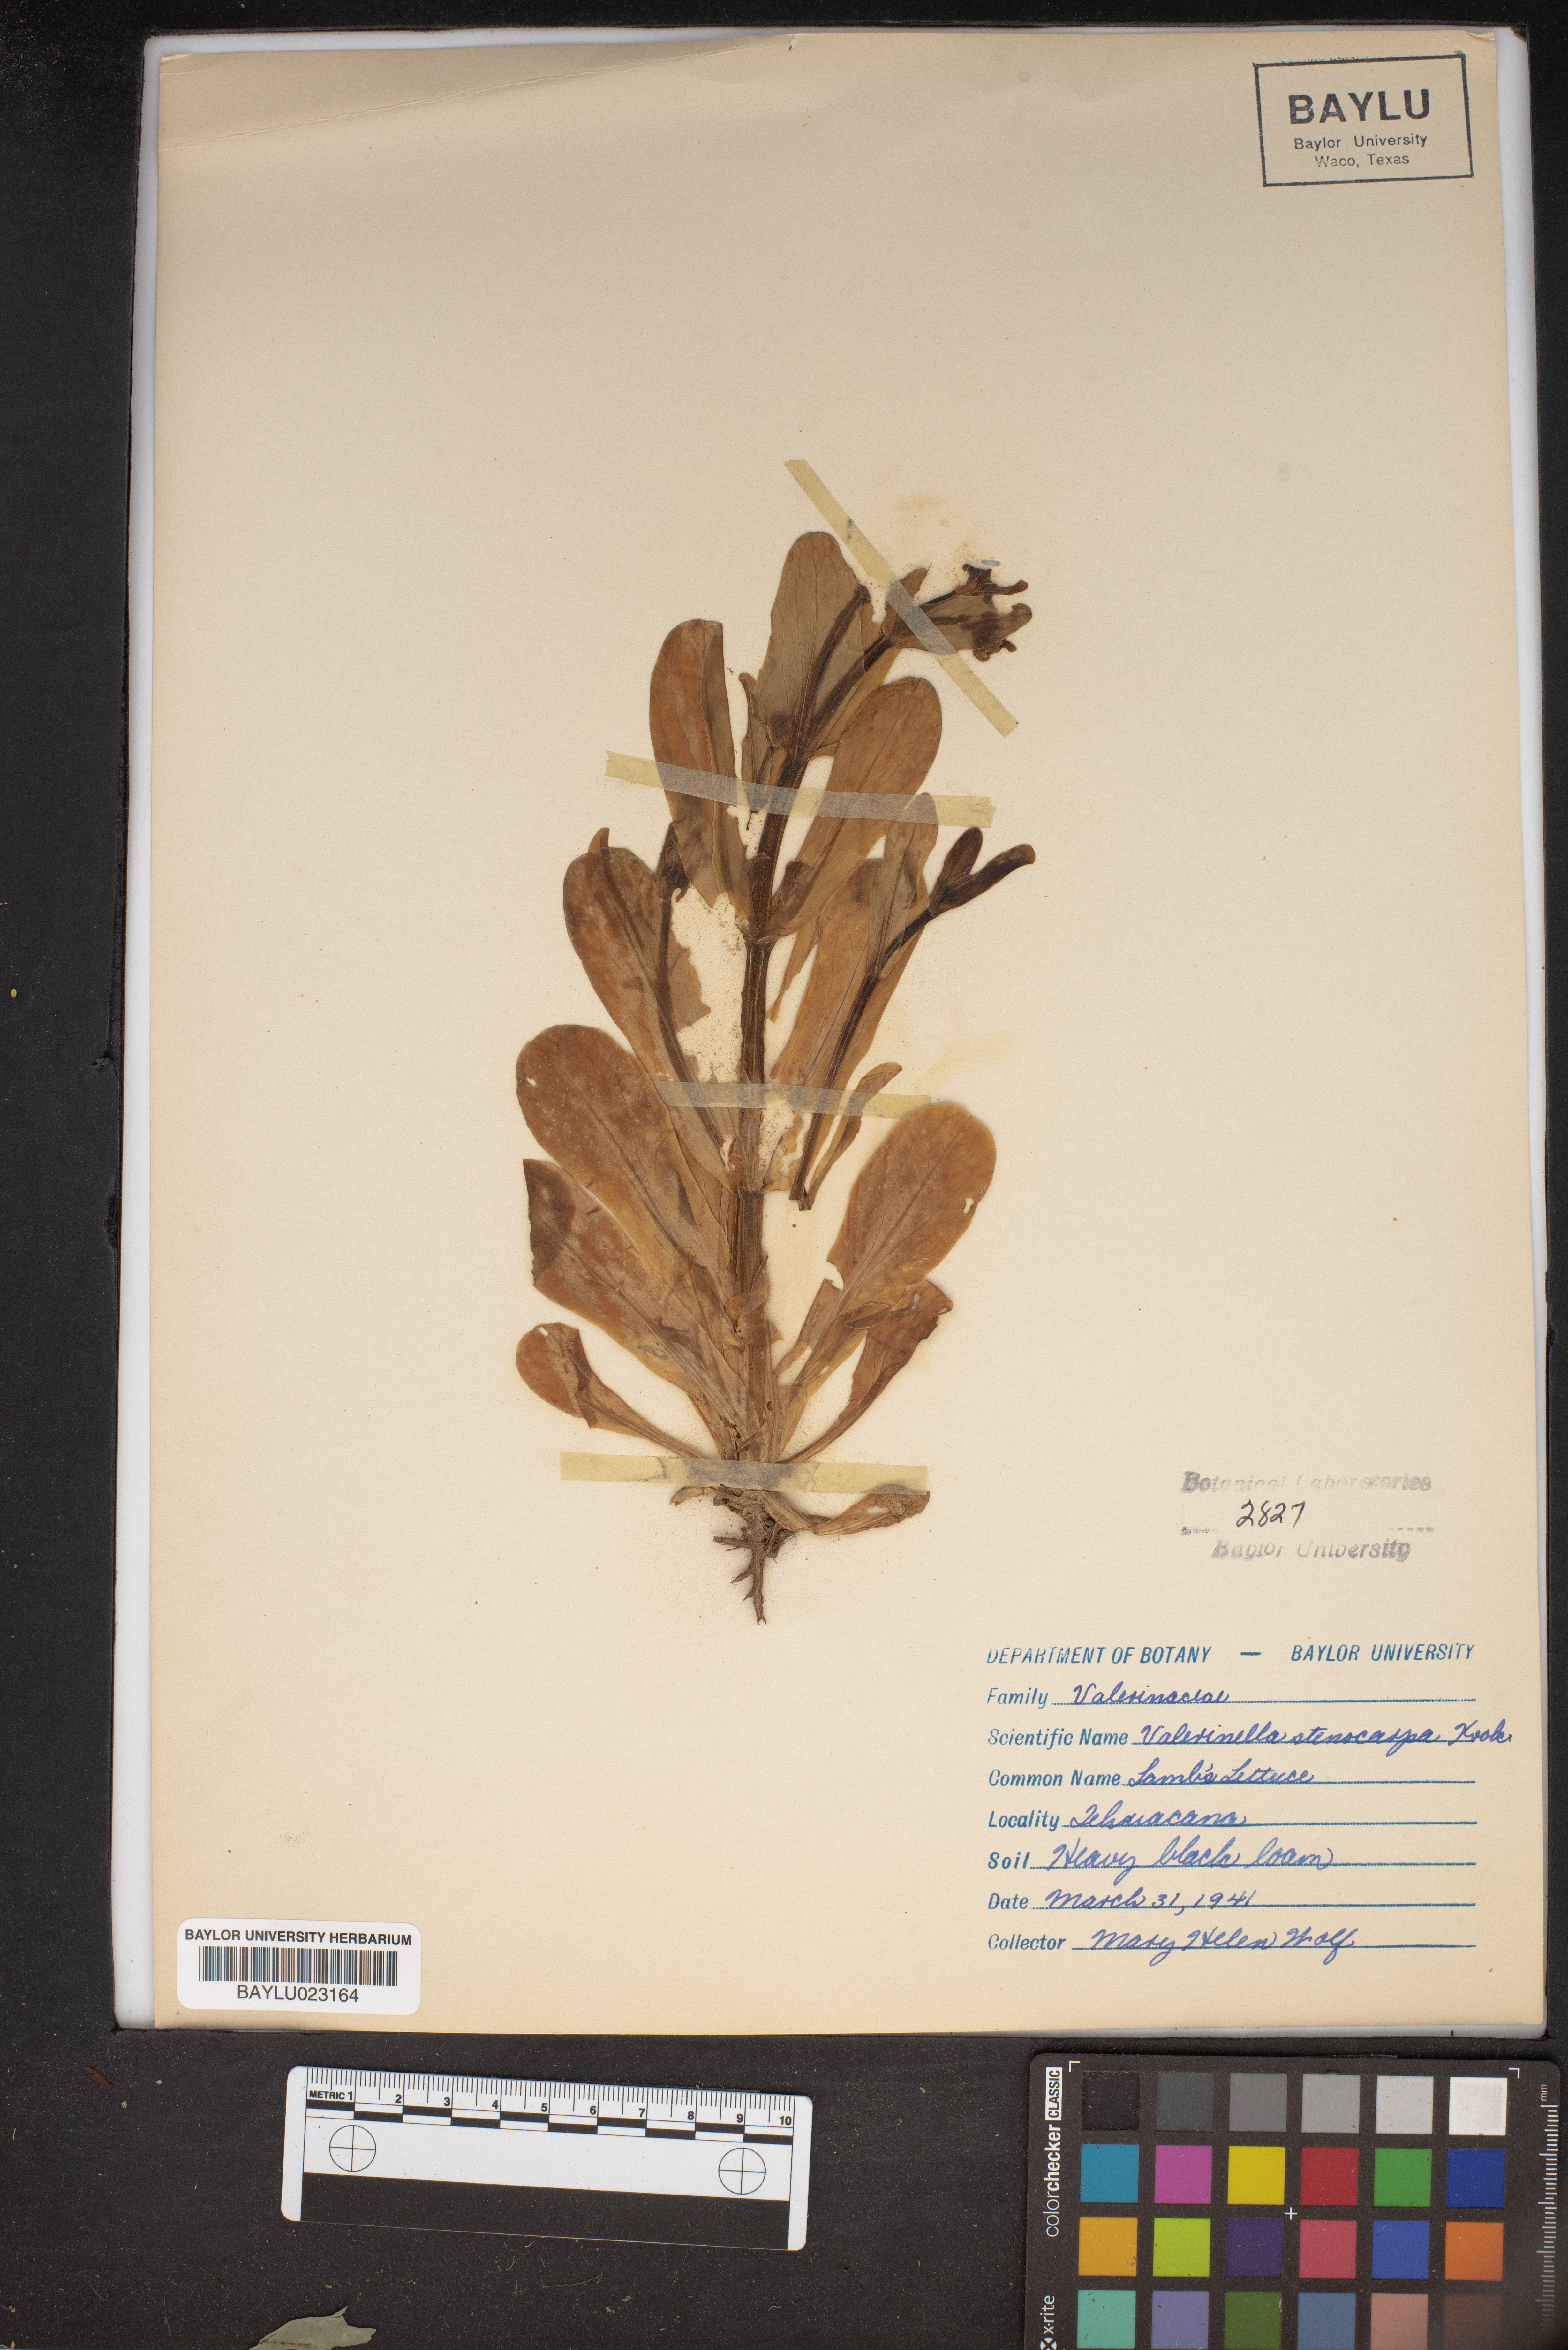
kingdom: Plantae
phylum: Tracheophyta
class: Magnoliopsida
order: Dipsacales
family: Caprifoliaceae
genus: Valerianella
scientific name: Valerianella stenocarpa
